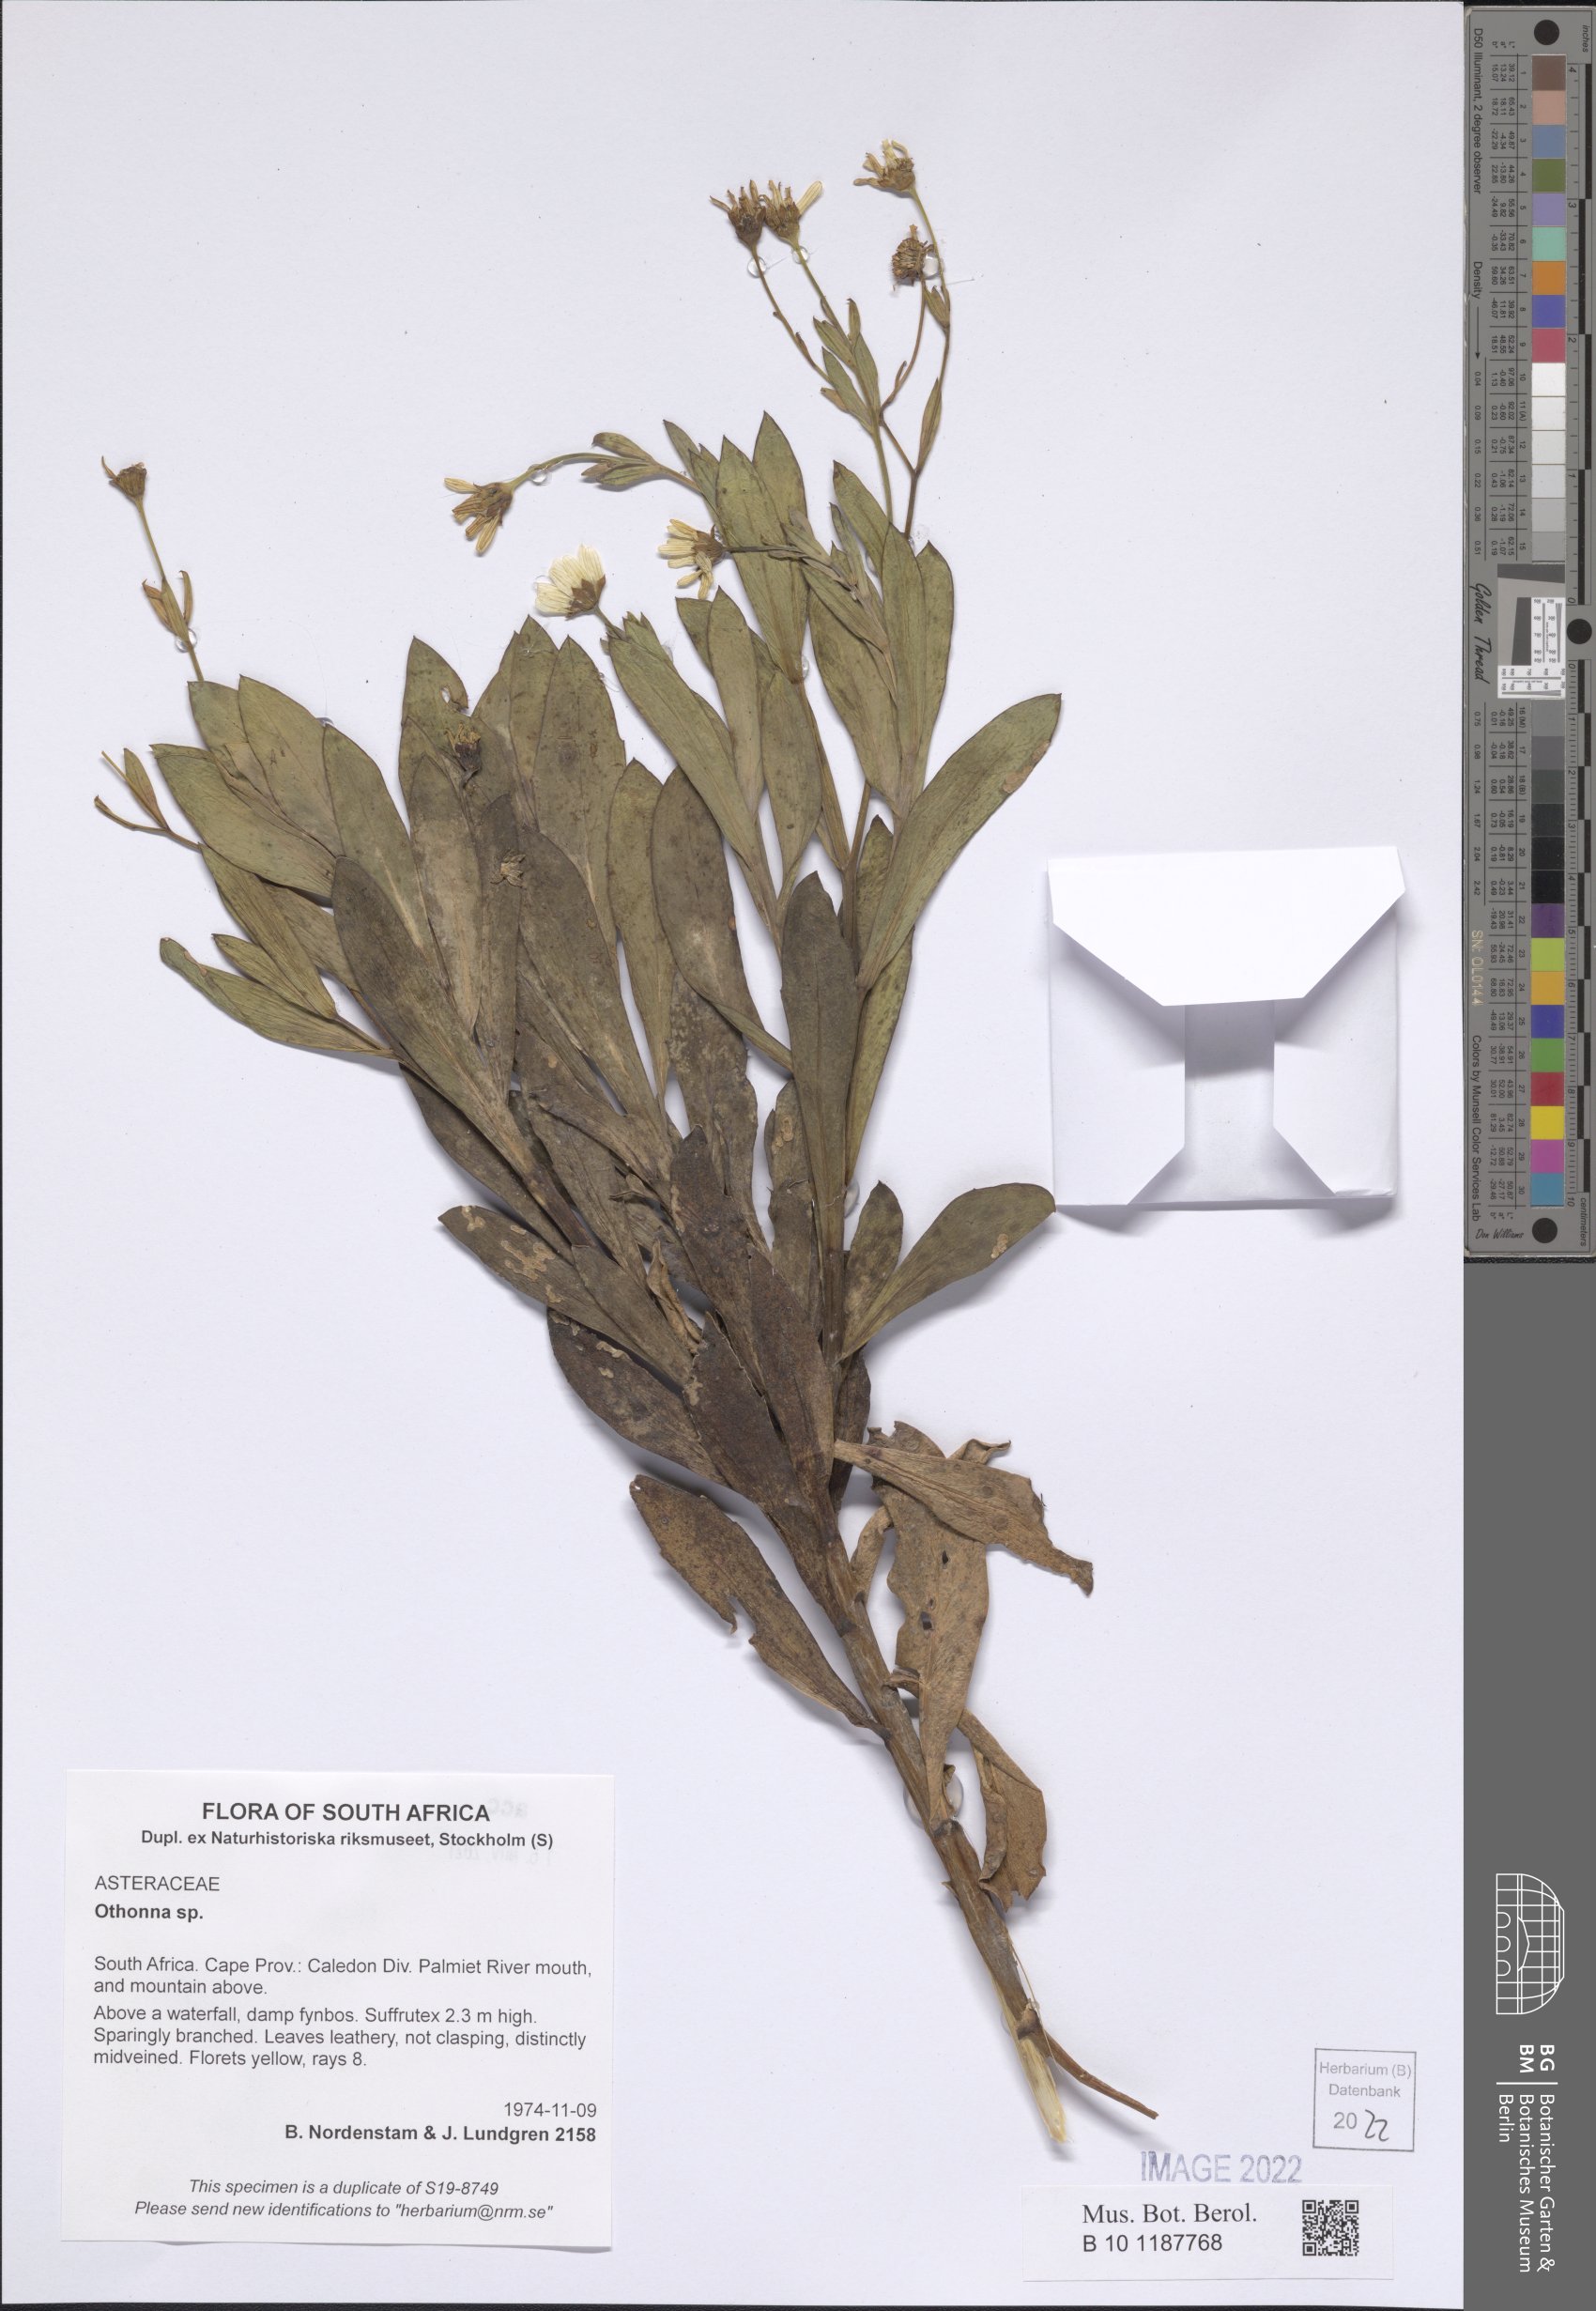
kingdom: Plantae
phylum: Tracheophyta
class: Magnoliopsida
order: Asterales
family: Asteraceae
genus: Othonna
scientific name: Othonna
